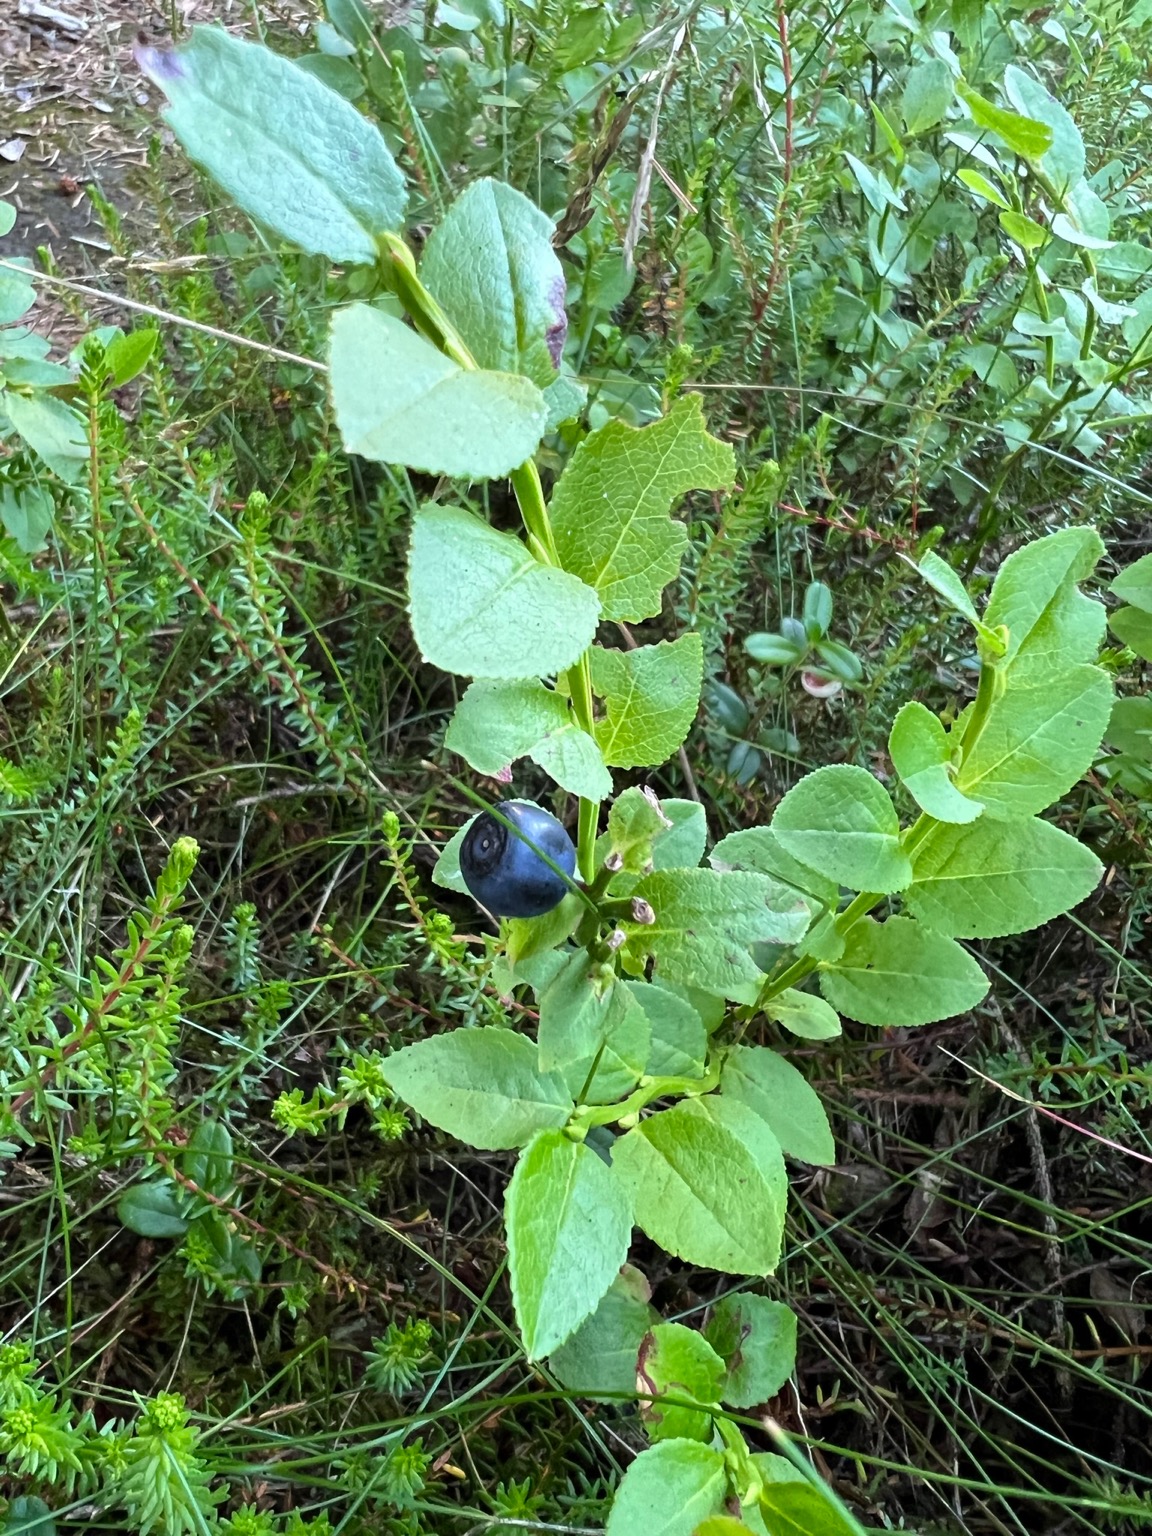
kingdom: Plantae
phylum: Tracheophyta
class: Magnoliopsida
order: Ericales
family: Ericaceae
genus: Vaccinium
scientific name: Vaccinium myrtillus
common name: Blåbær
